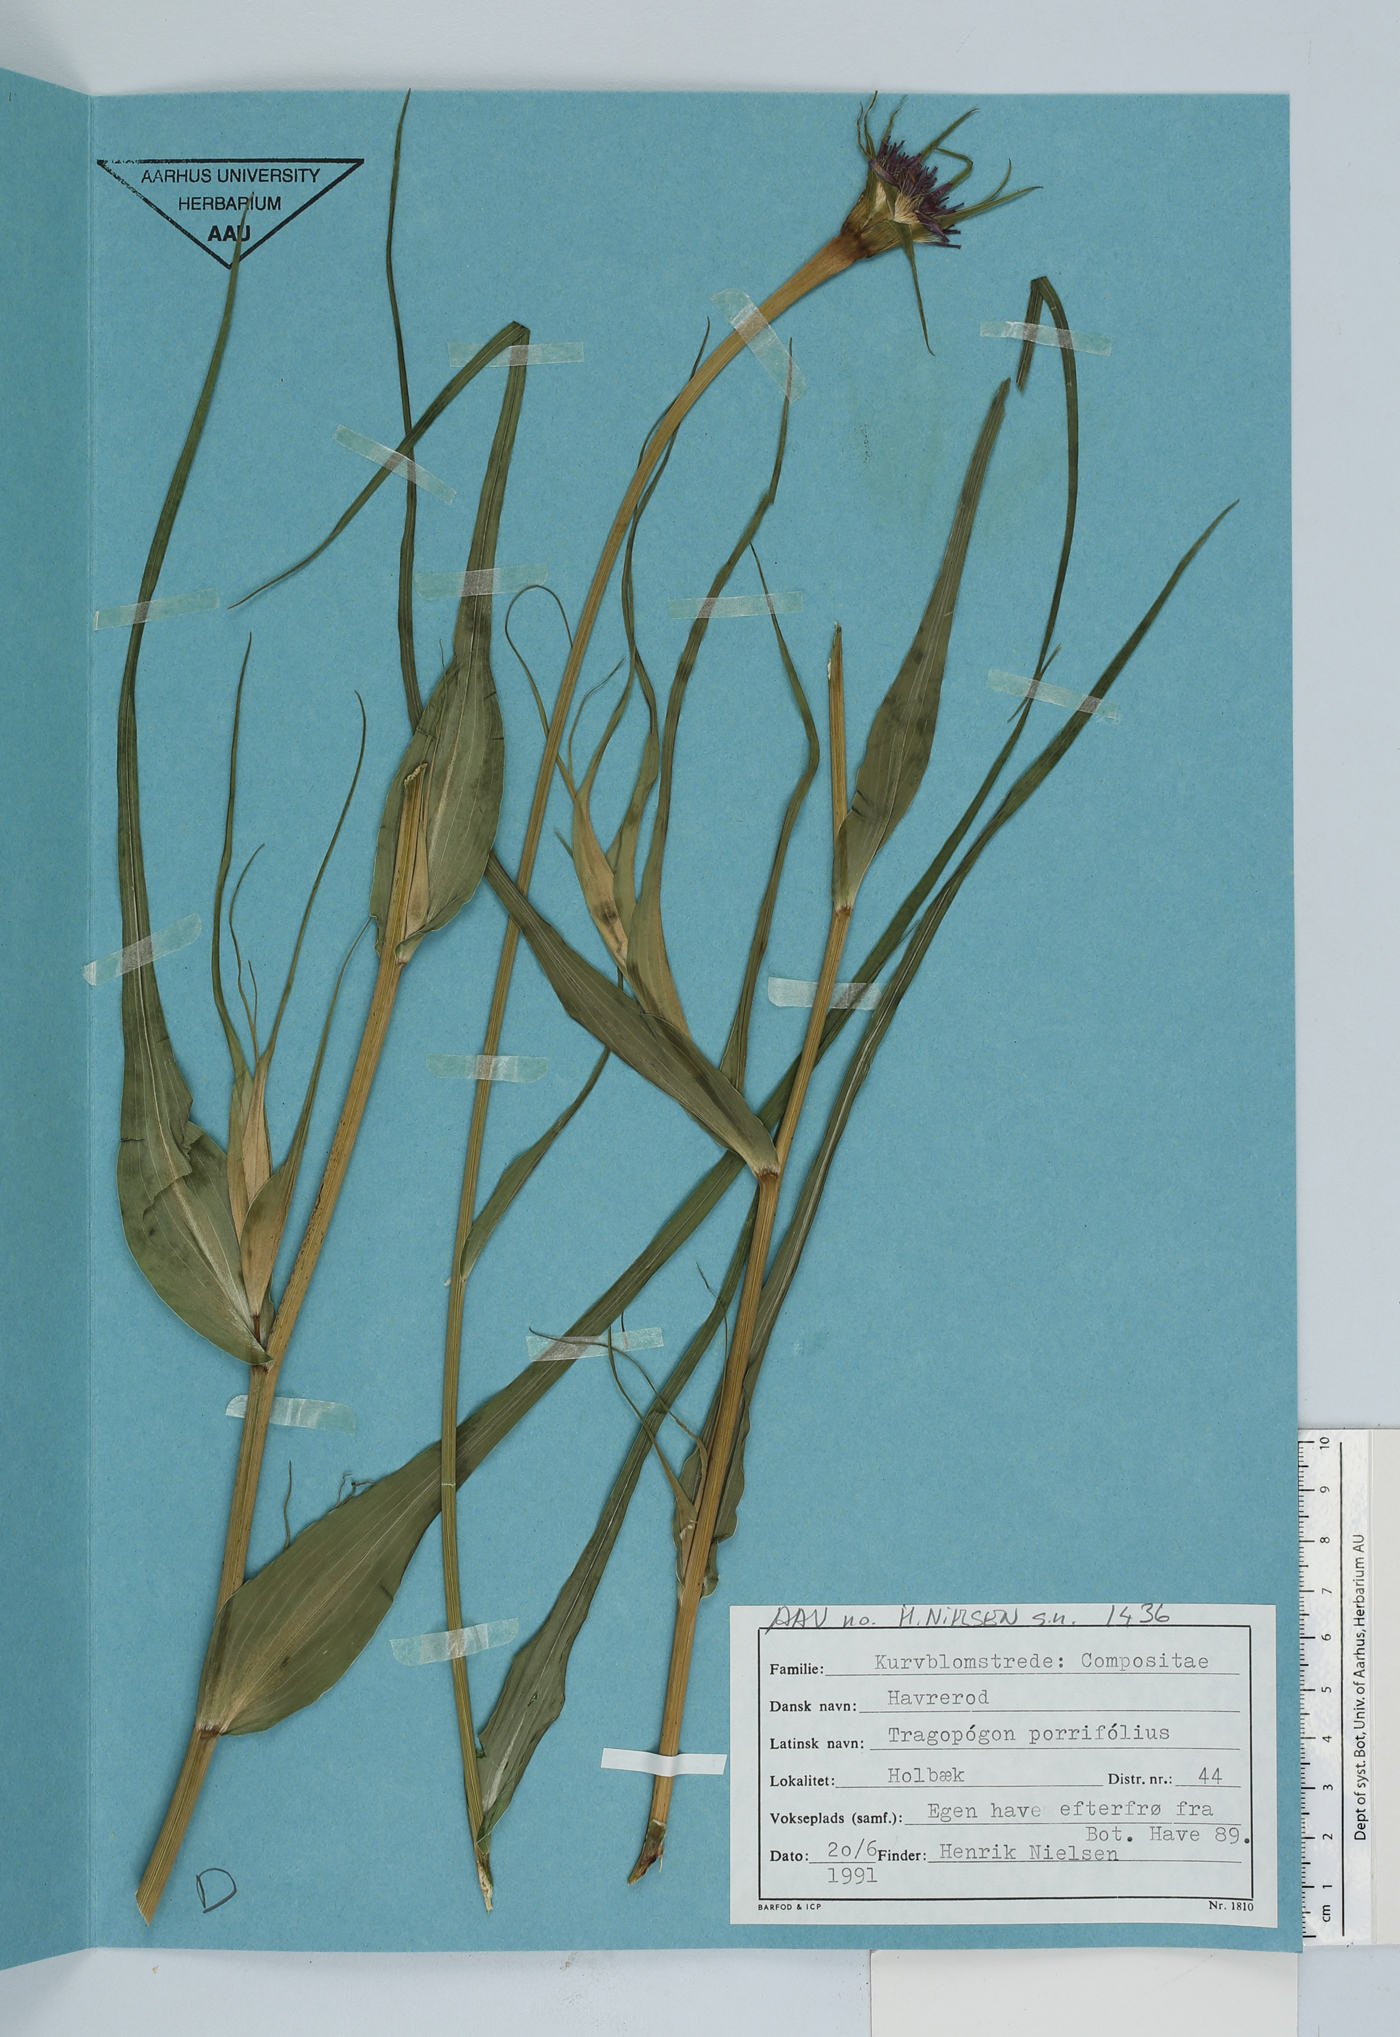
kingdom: Plantae
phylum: Tracheophyta
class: Magnoliopsida
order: Asterales
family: Asteraceae
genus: Tragopogon
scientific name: Tragopogon porrifolius
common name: Salsify
